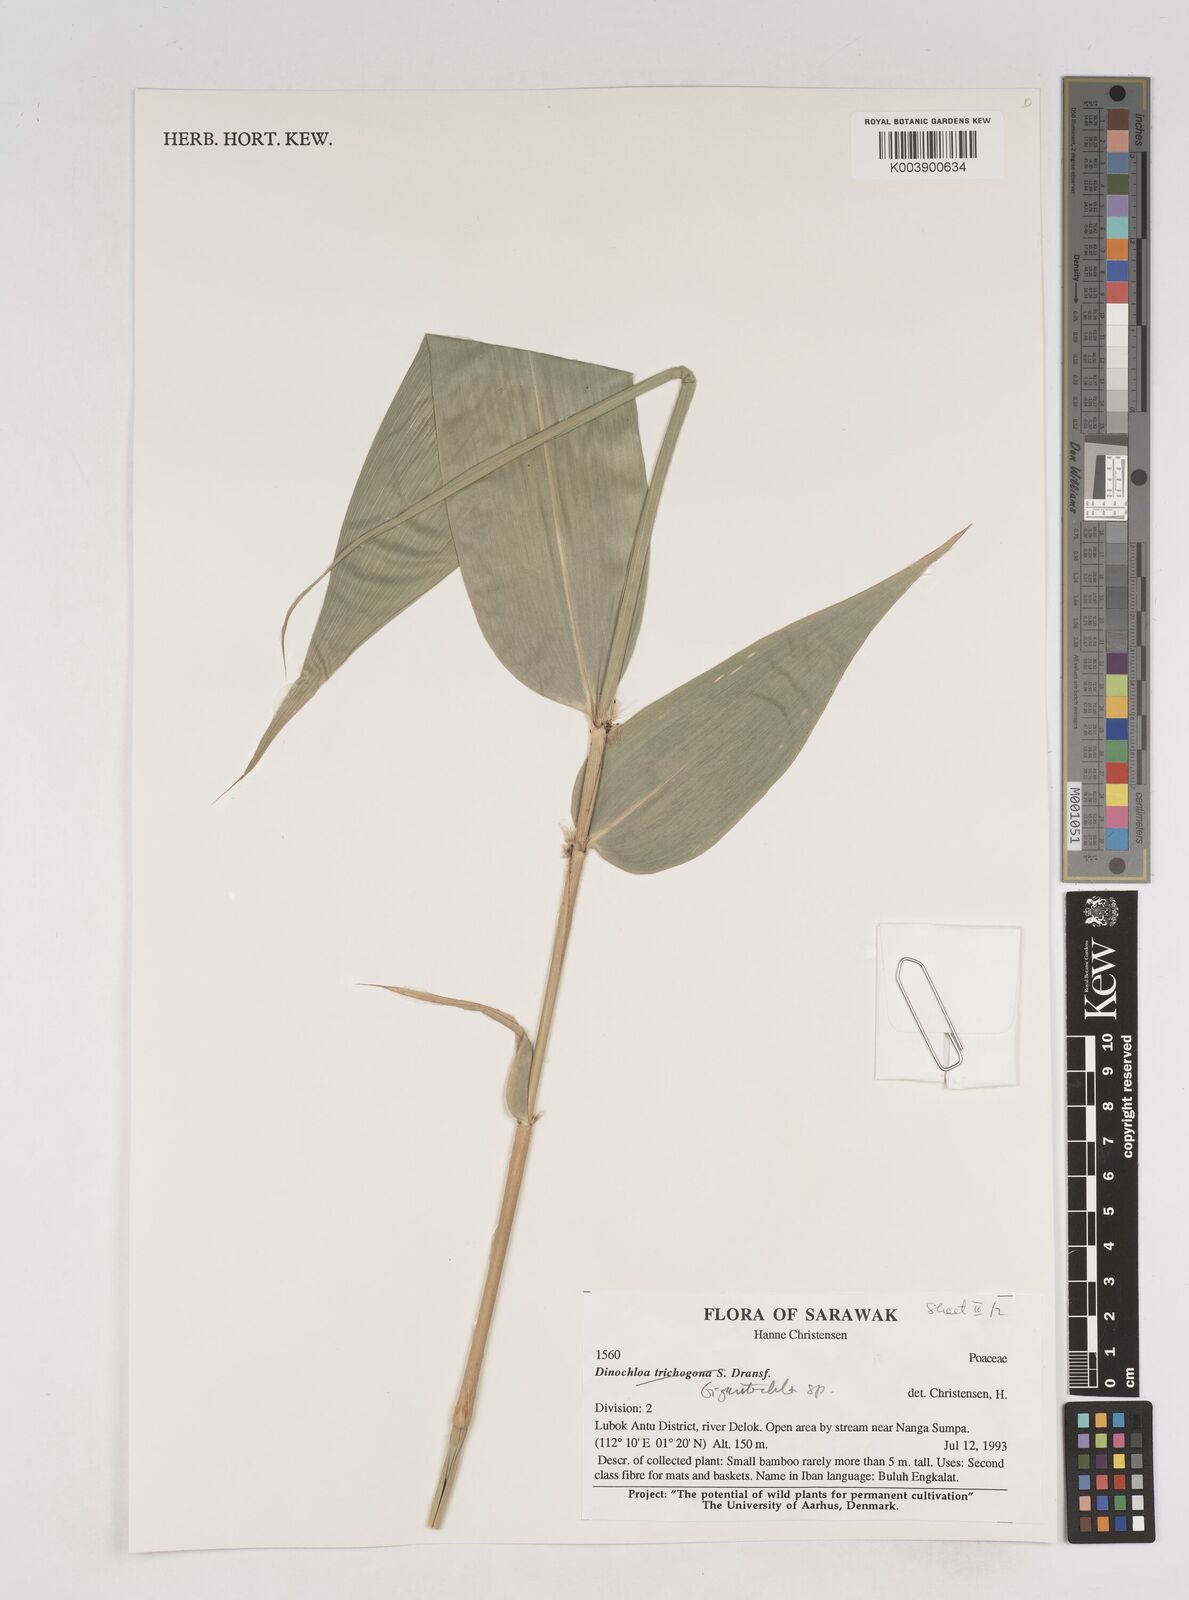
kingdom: Plantae
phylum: Tracheophyta
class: Liliopsida
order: Poales
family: Poaceae
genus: Gigantochloa
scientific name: Gigantochloa
